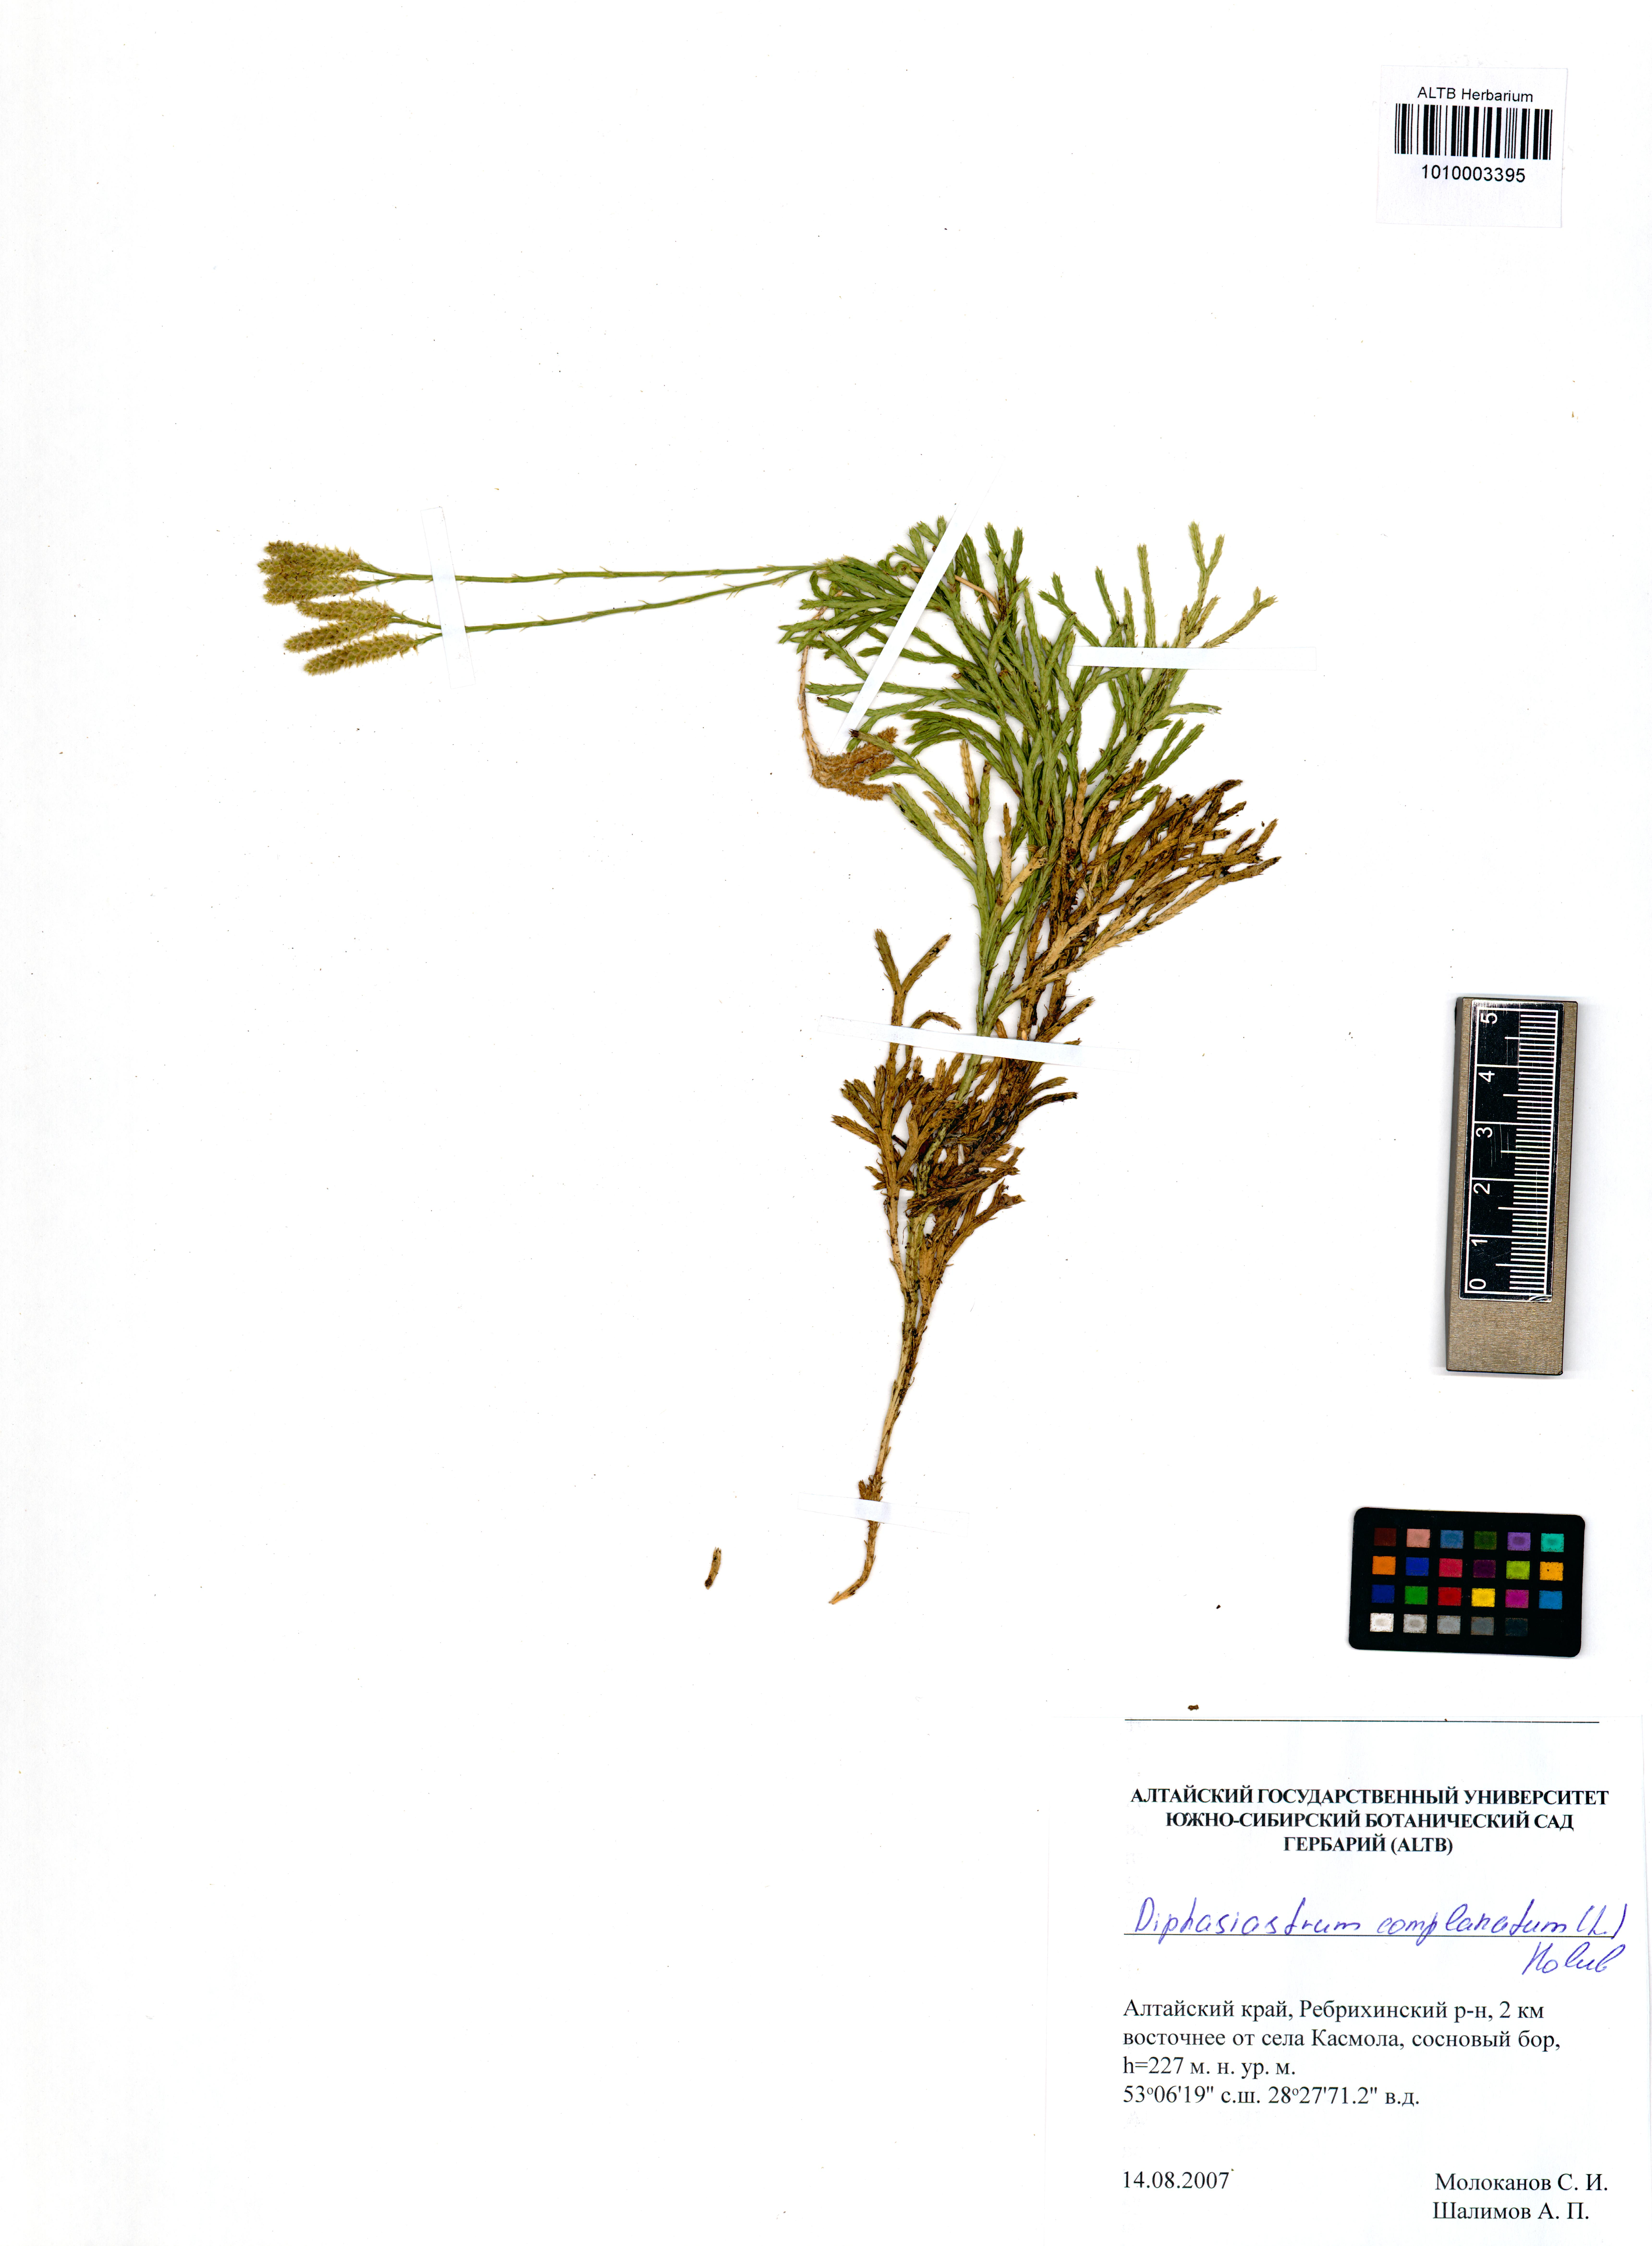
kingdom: Plantae
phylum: Tracheophyta
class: Lycopodiopsida
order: Lycopodiales
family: Lycopodiaceae
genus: Diphasiastrum
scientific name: Diphasiastrum complanatum
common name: Northern running-pine
